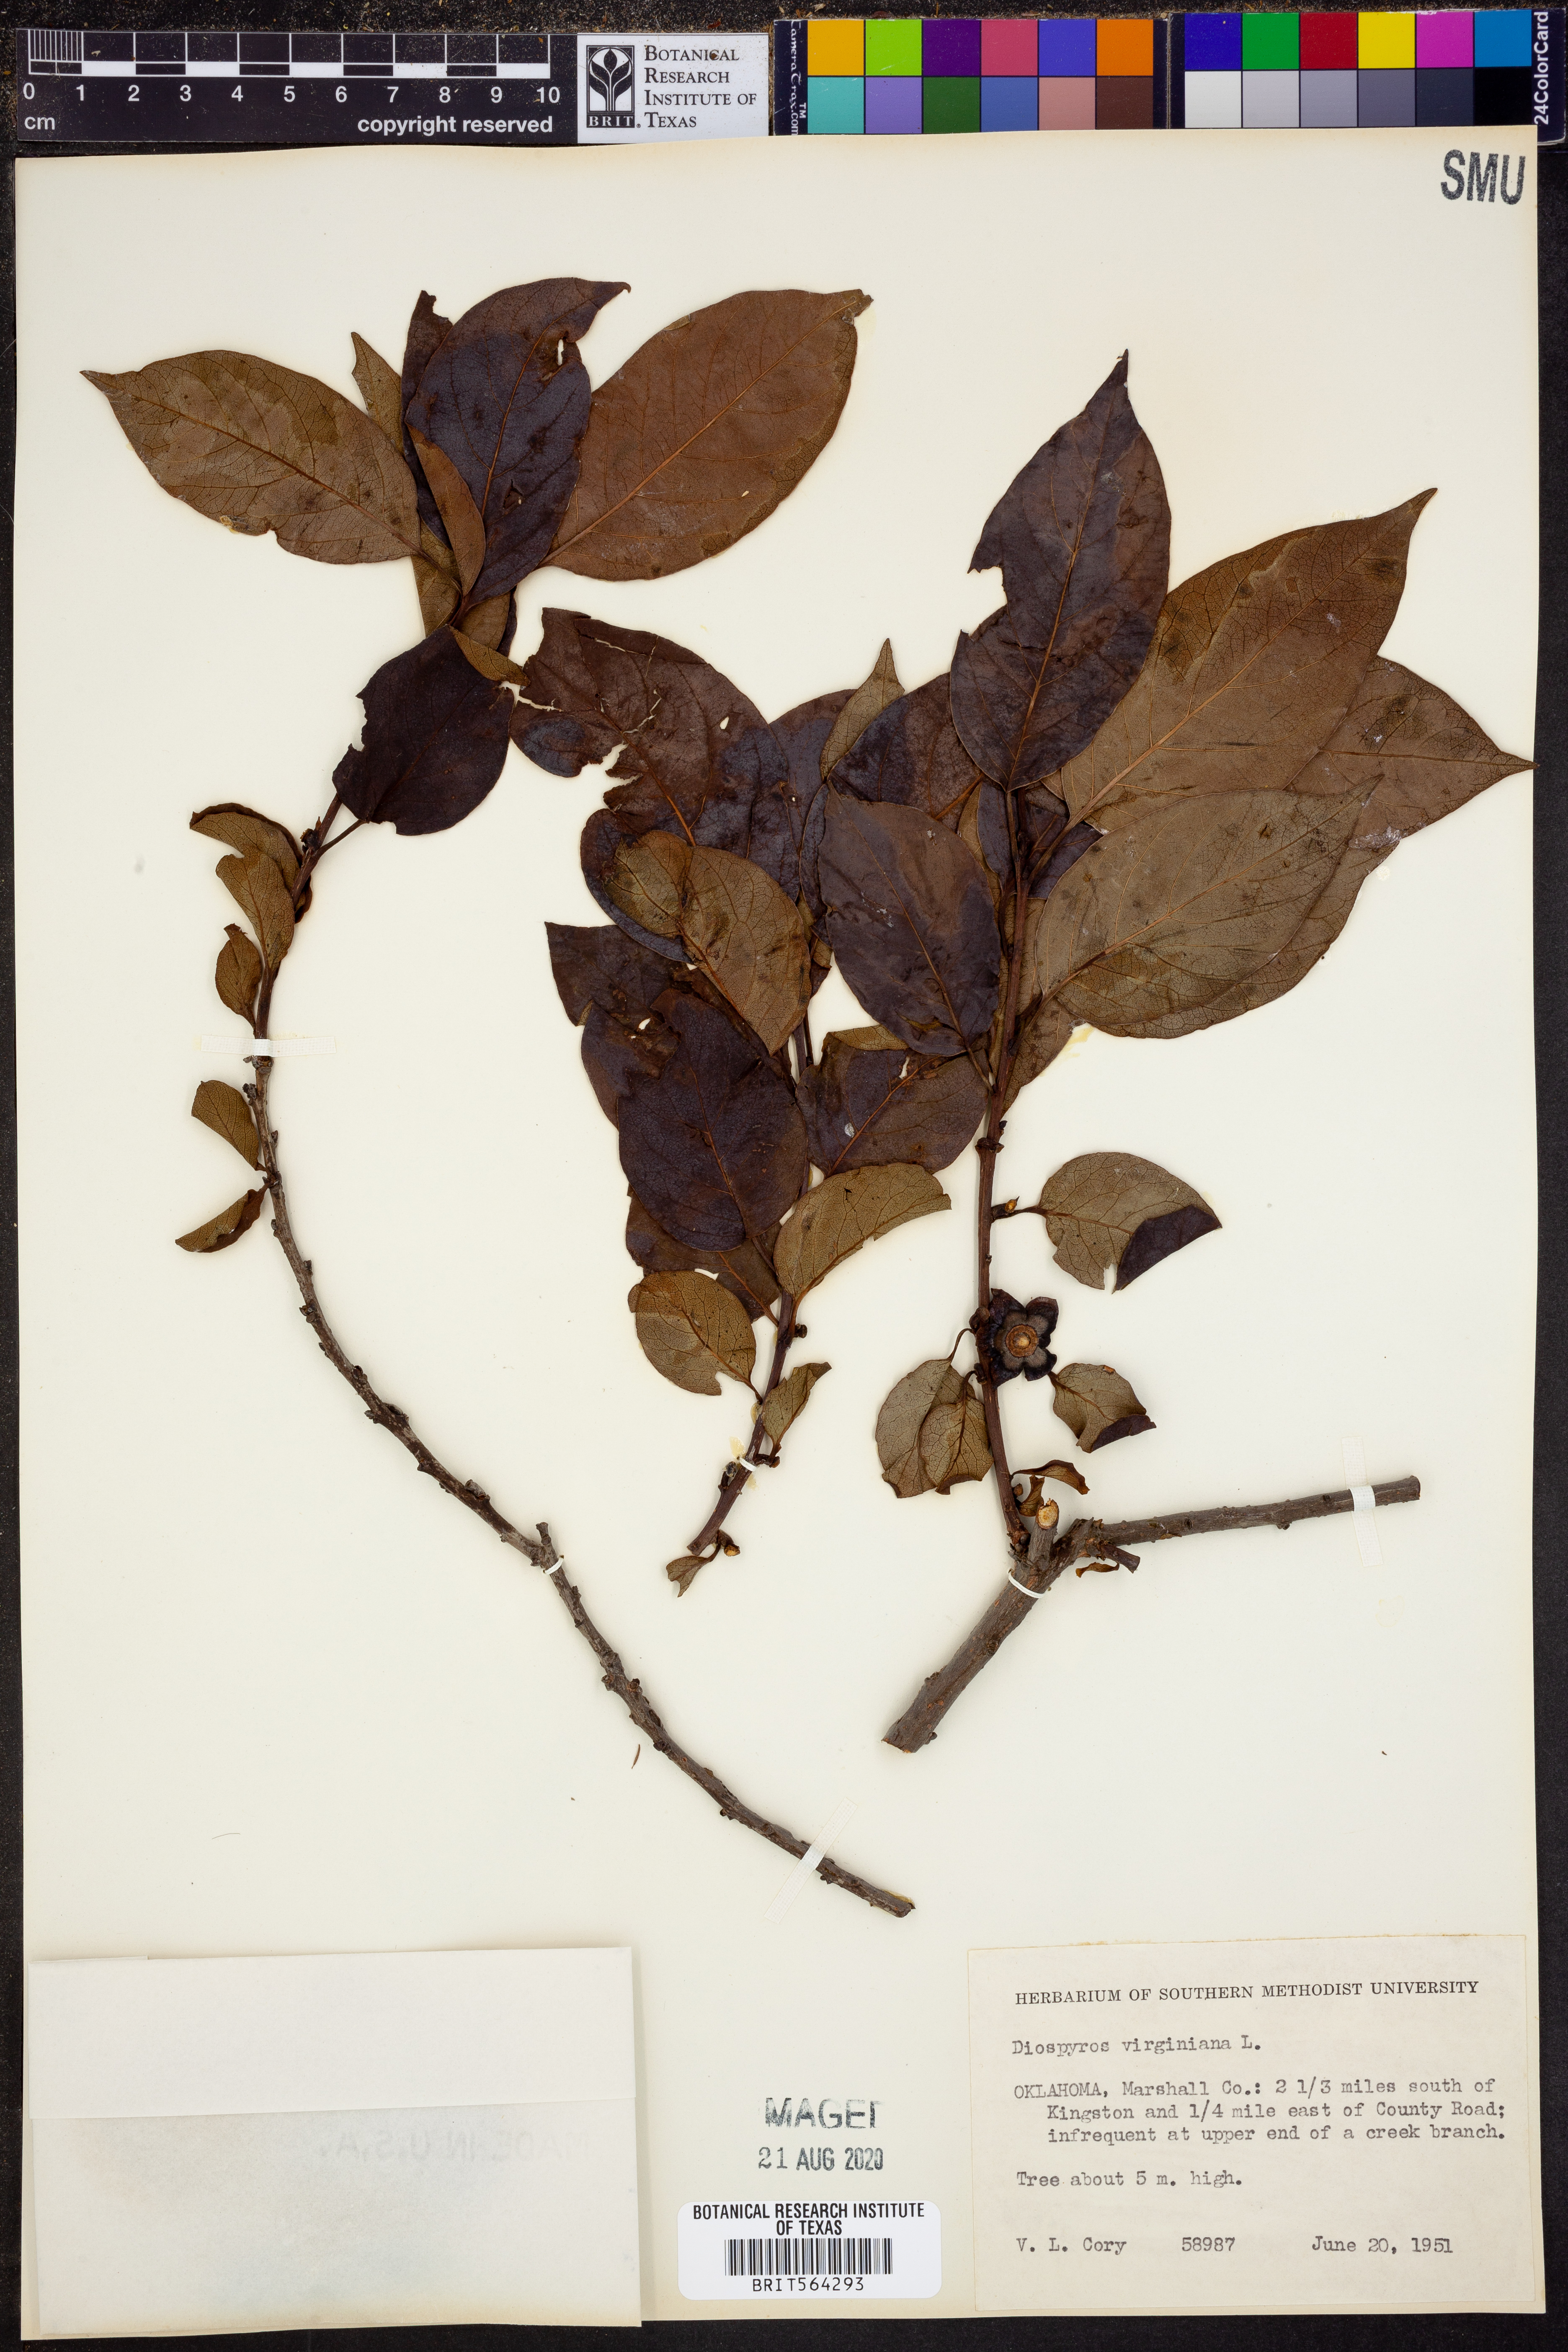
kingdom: Plantae
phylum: Tracheophyta
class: Magnoliopsida
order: Ericales
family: Ebenaceae
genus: Diospyros
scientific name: Diospyros virginiana
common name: Persimmon
